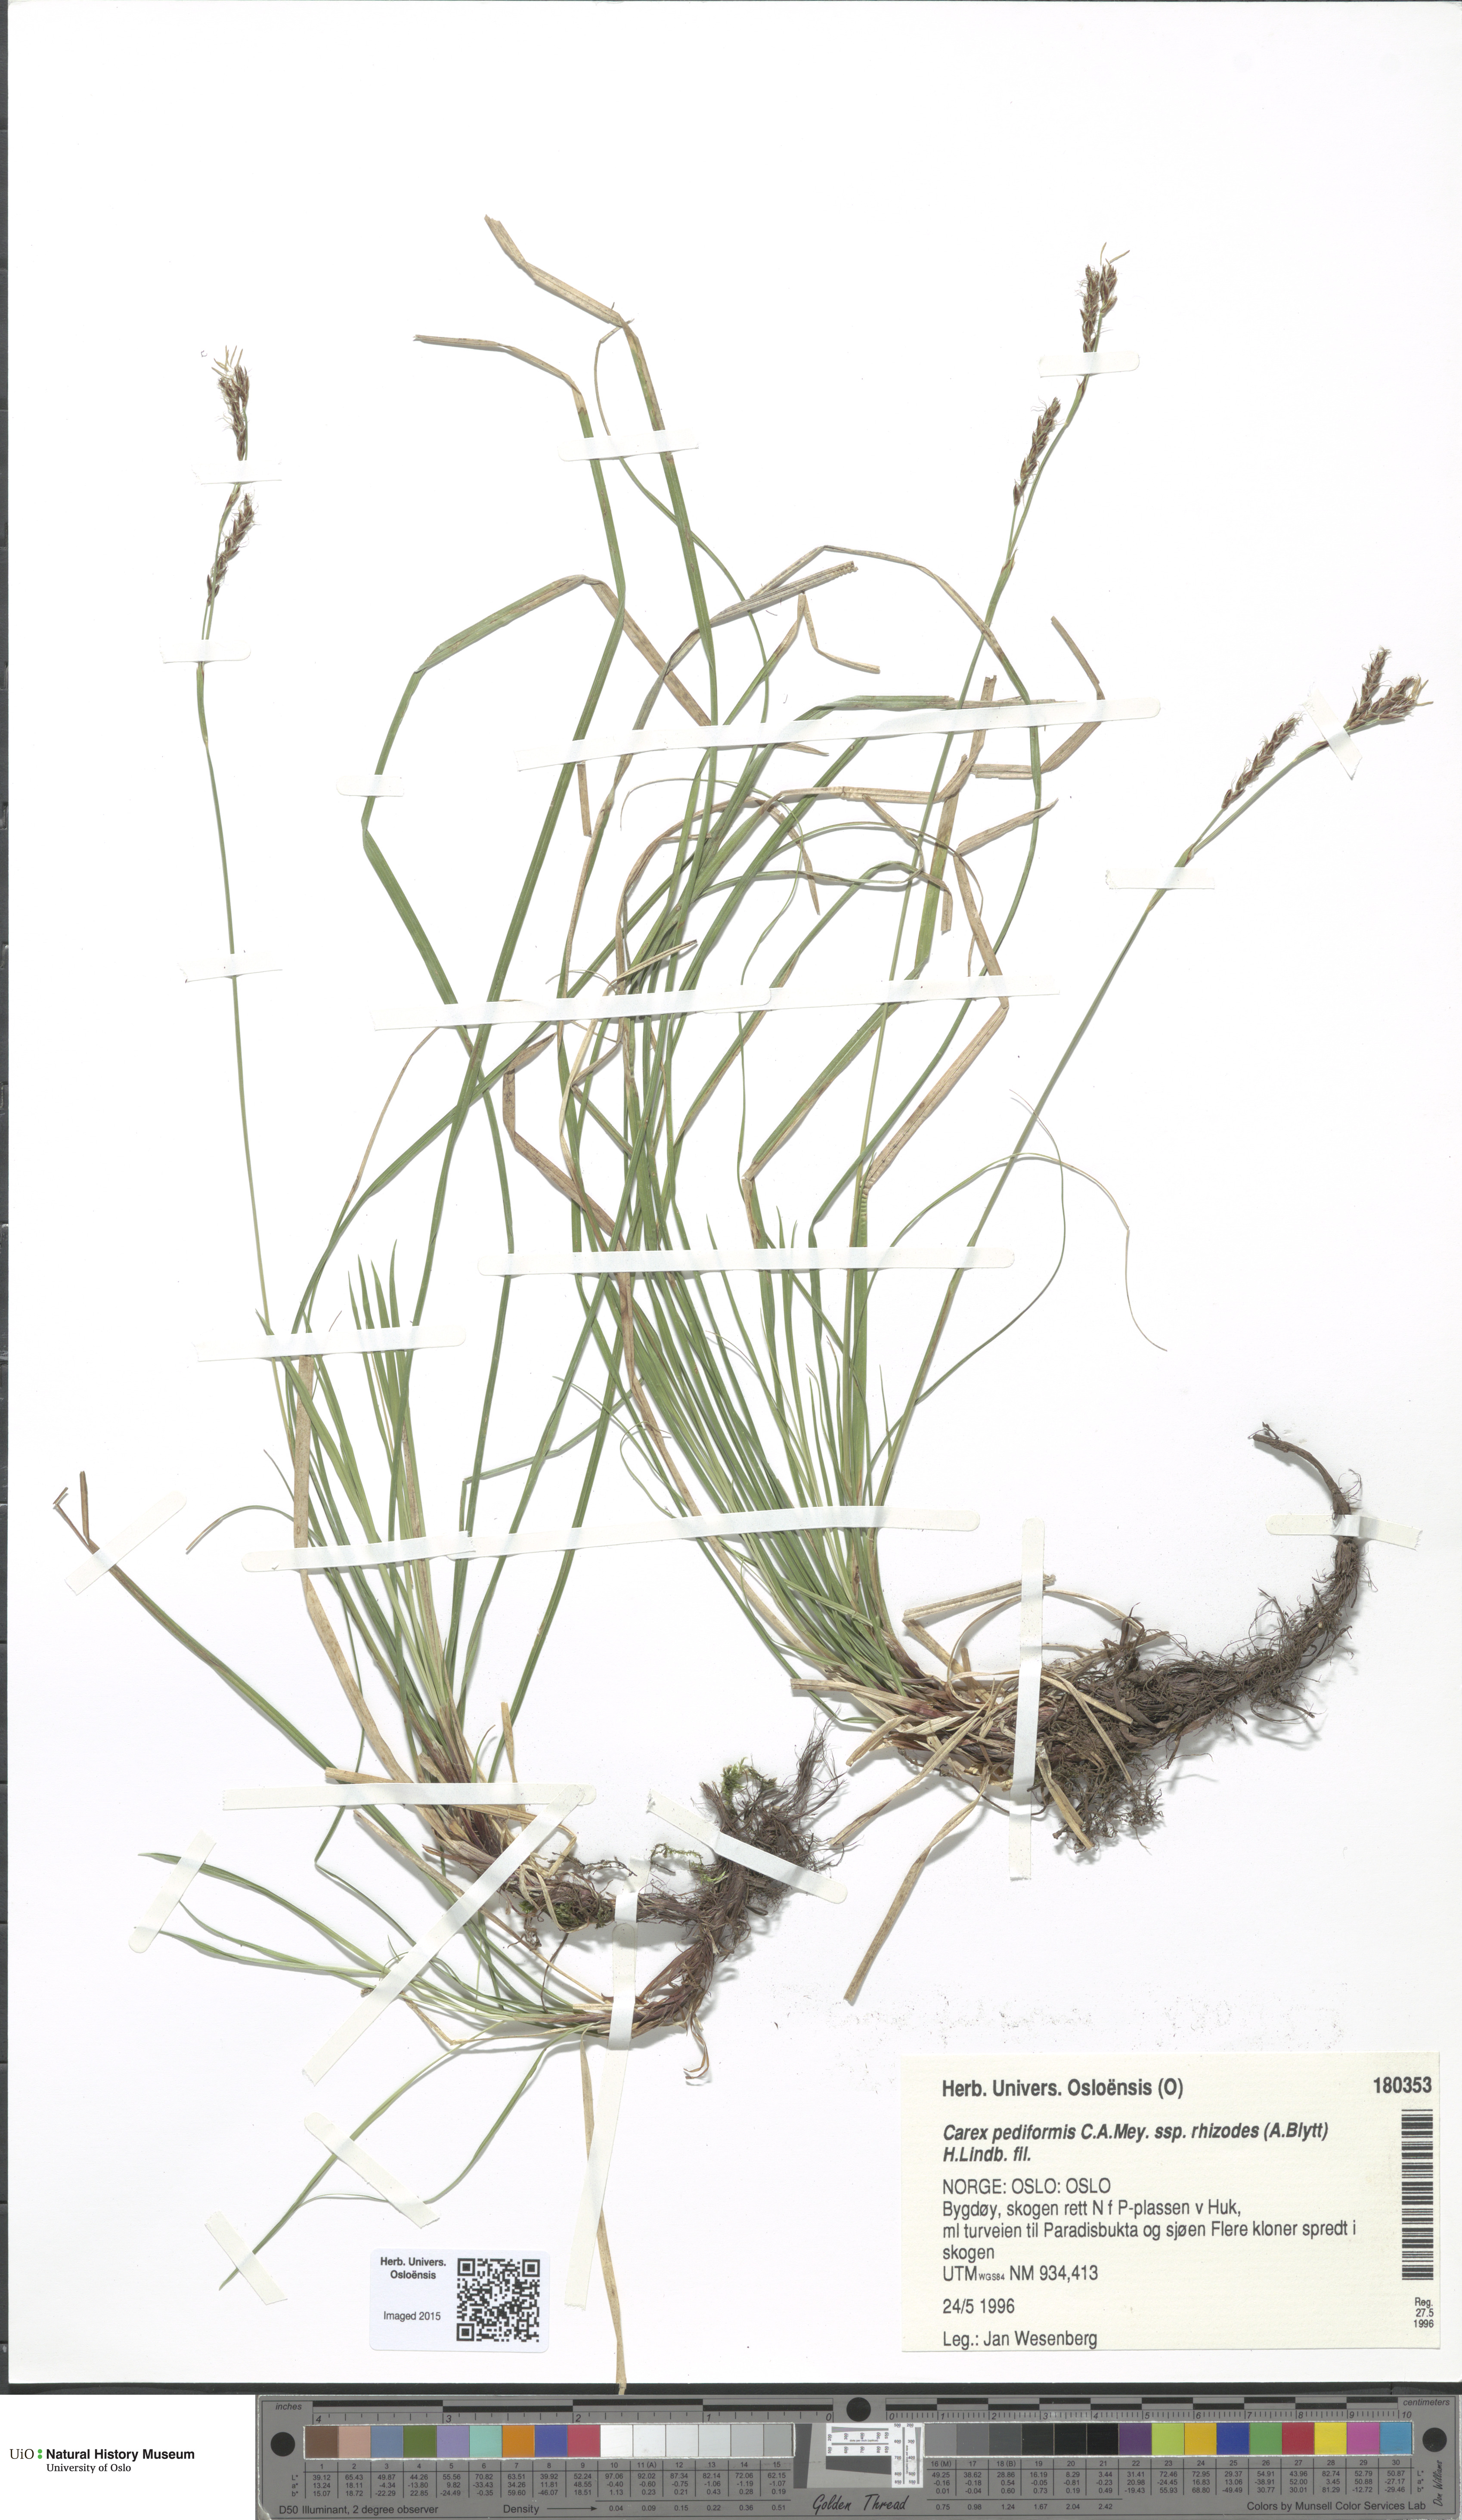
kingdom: Plantae
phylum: Tracheophyta
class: Liliopsida
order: Poales
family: Cyperaceae
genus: Carex
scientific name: Carex rhizina
